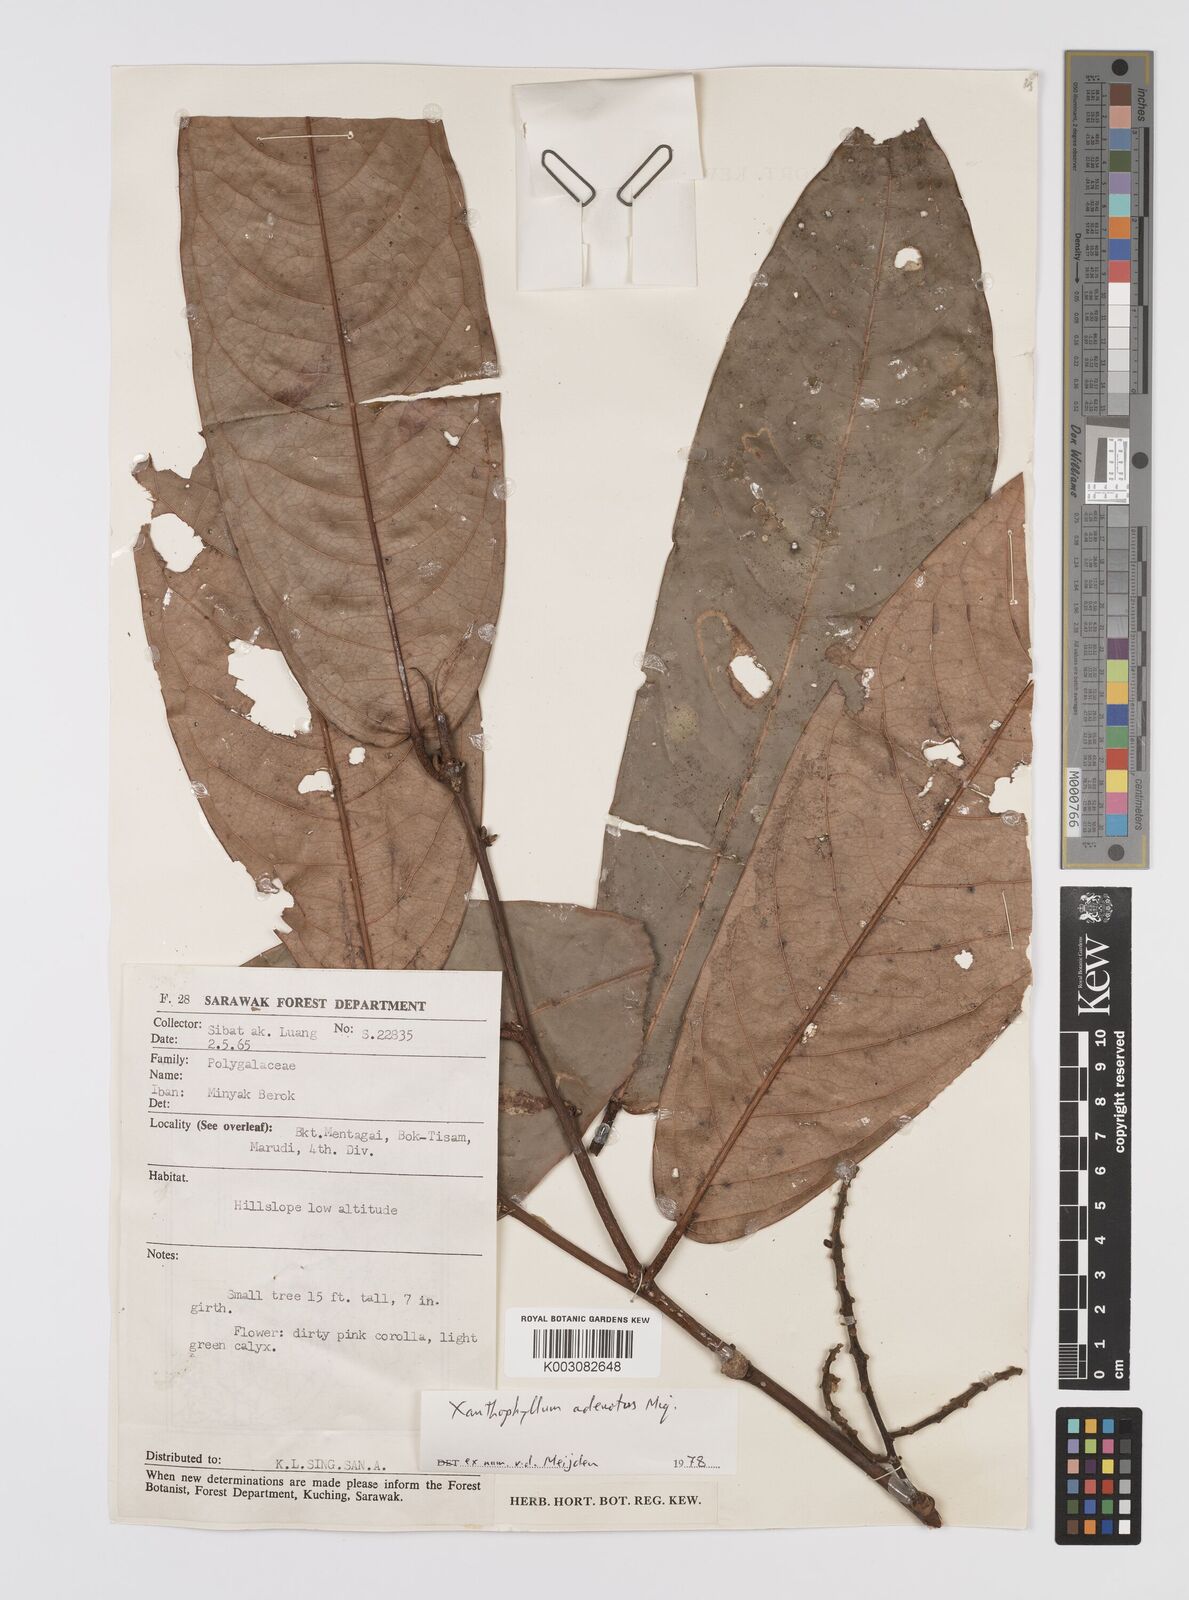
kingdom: Plantae
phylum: Tracheophyta
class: Magnoliopsida
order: Fabales
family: Polygalaceae
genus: Xanthophyllum
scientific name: Xanthophyllum adenotus
